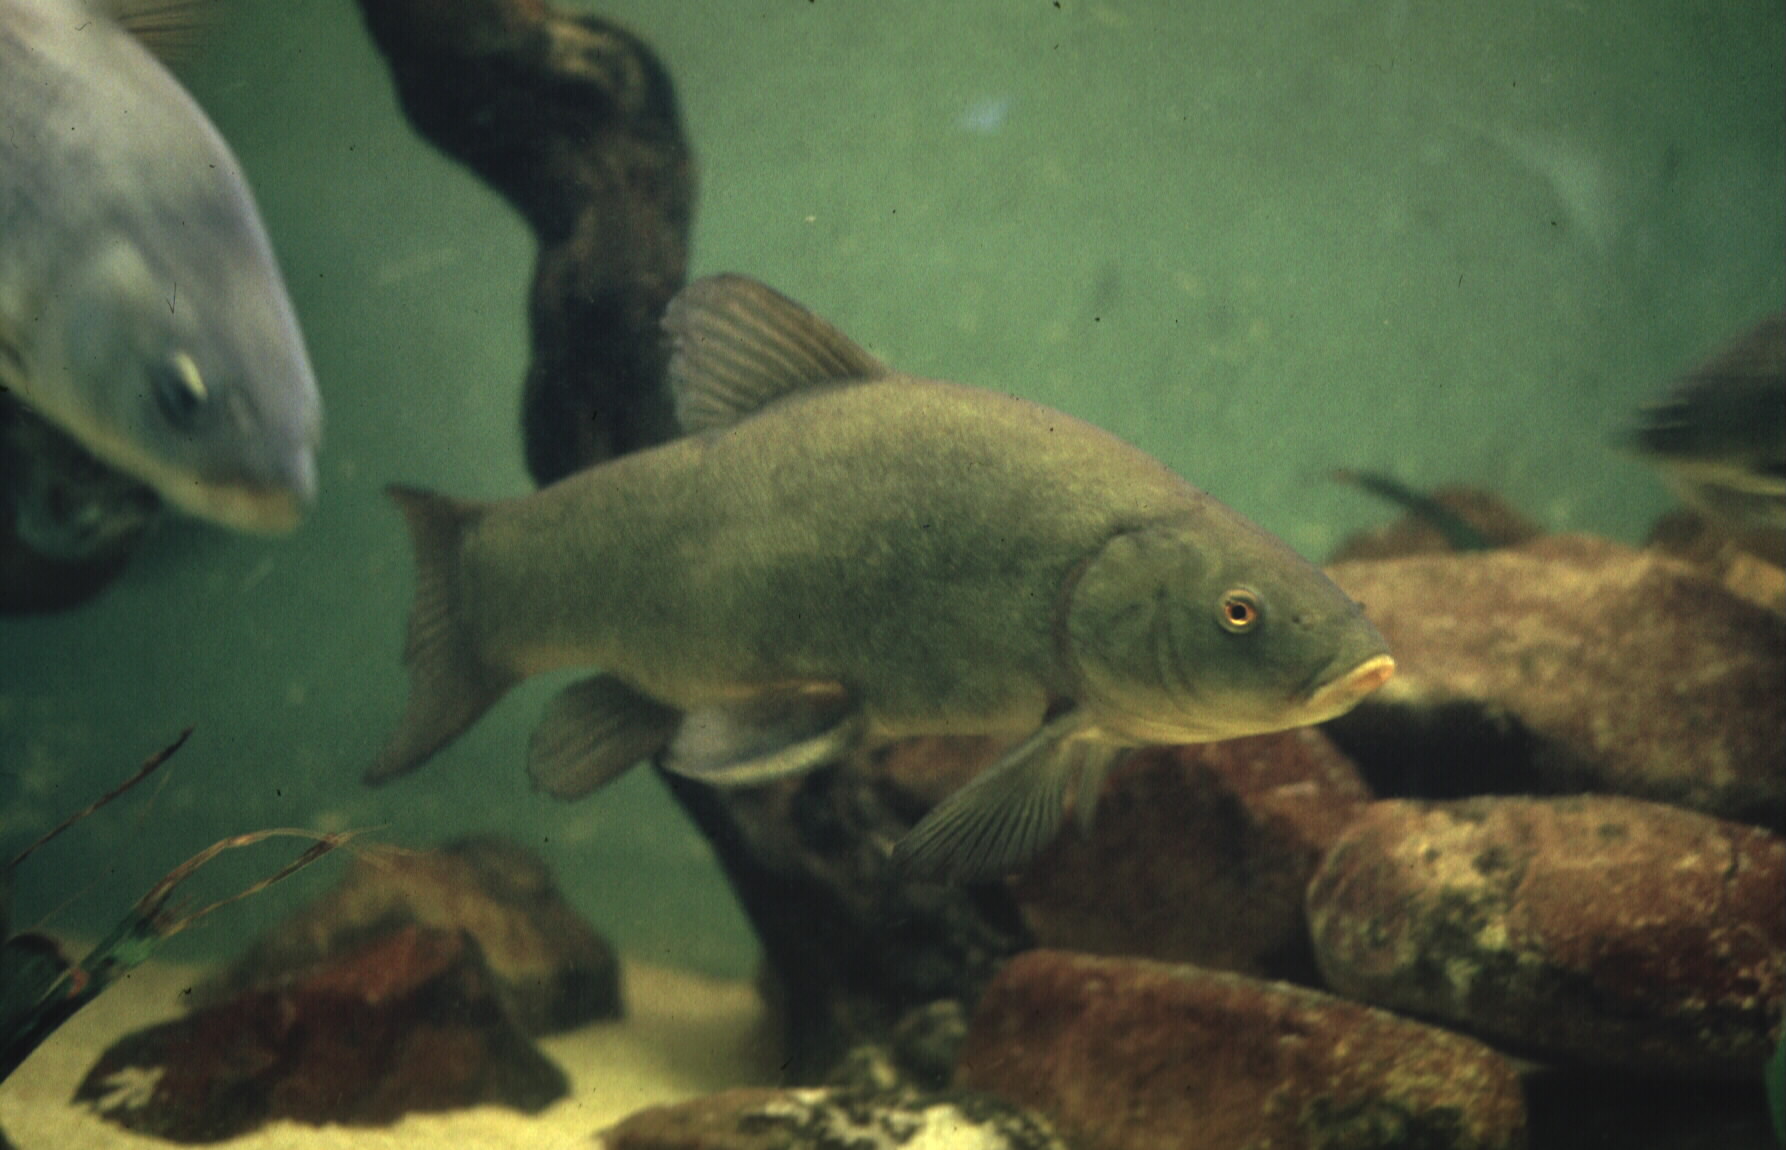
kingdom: Animalia
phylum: Chordata
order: Cypriniformes
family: Cyprinidae
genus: Tinca
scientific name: Tinca tinca
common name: Tench
